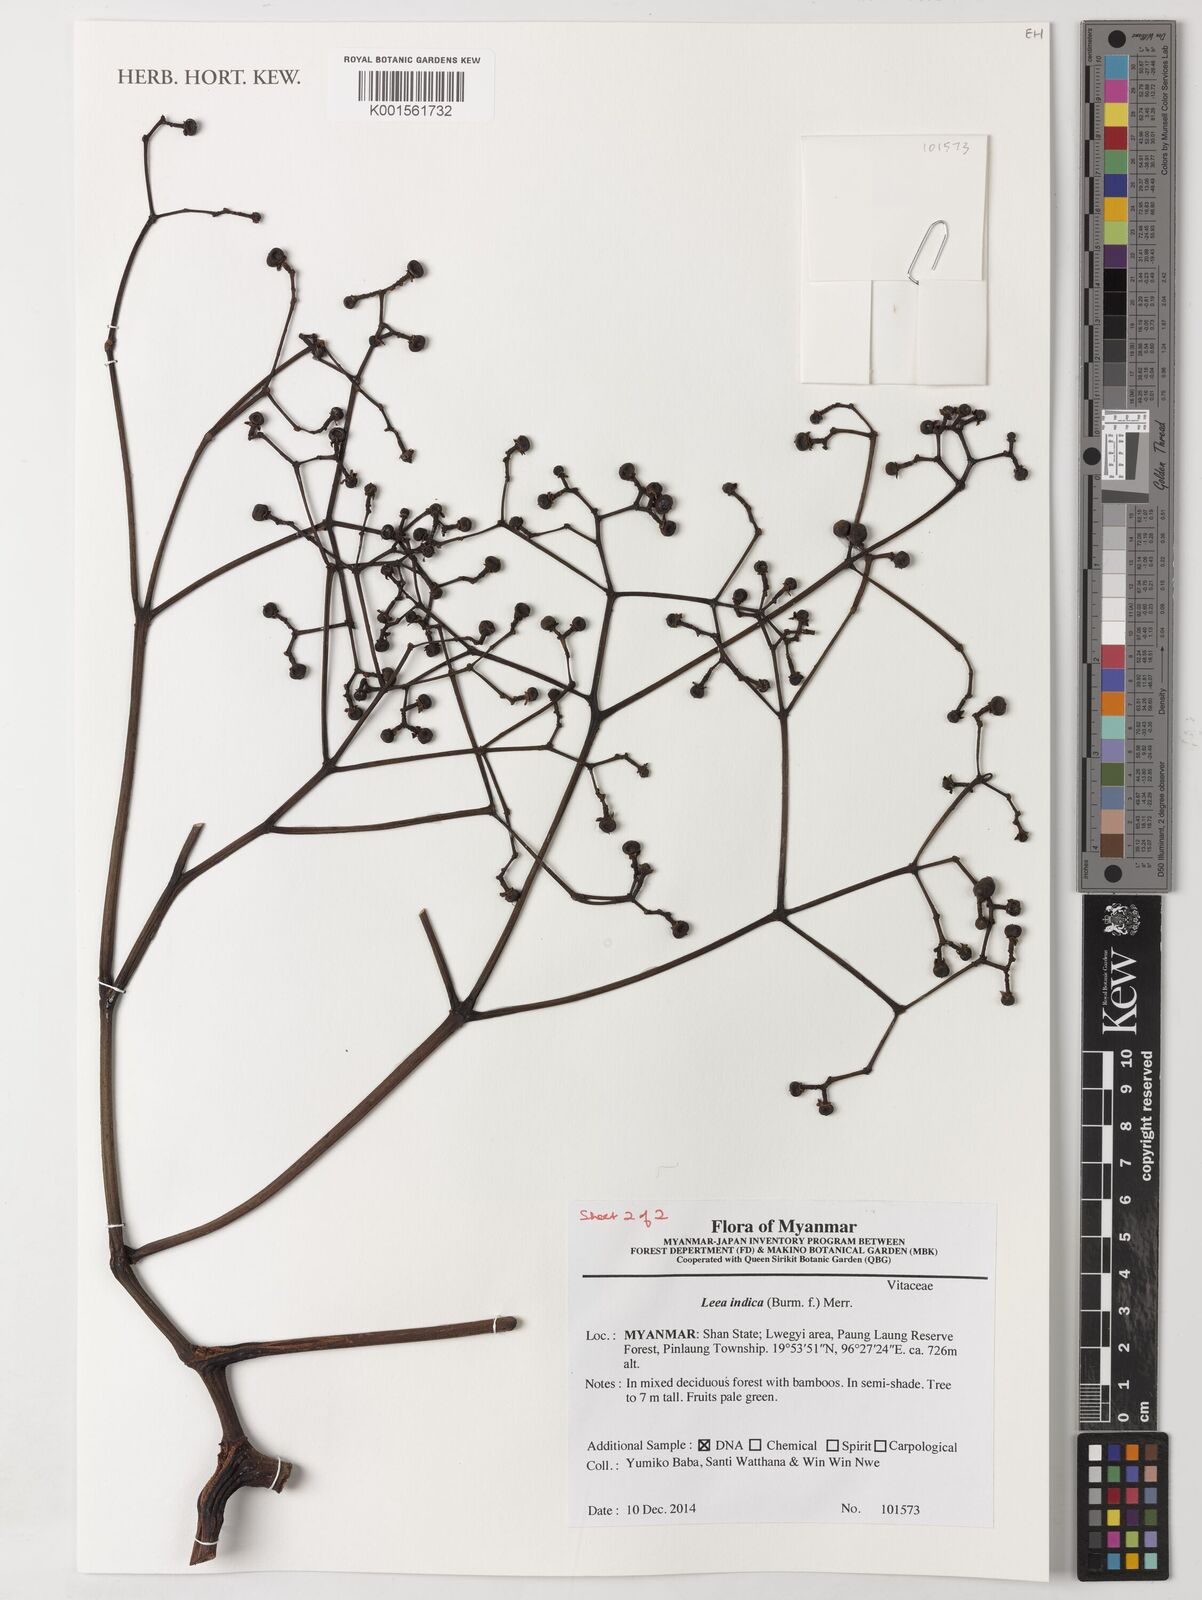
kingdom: Plantae
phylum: Tracheophyta
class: Magnoliopsida
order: Vitales
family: Vitaceae
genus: Leea
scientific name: Leea indica
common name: Bandicoot-berry
